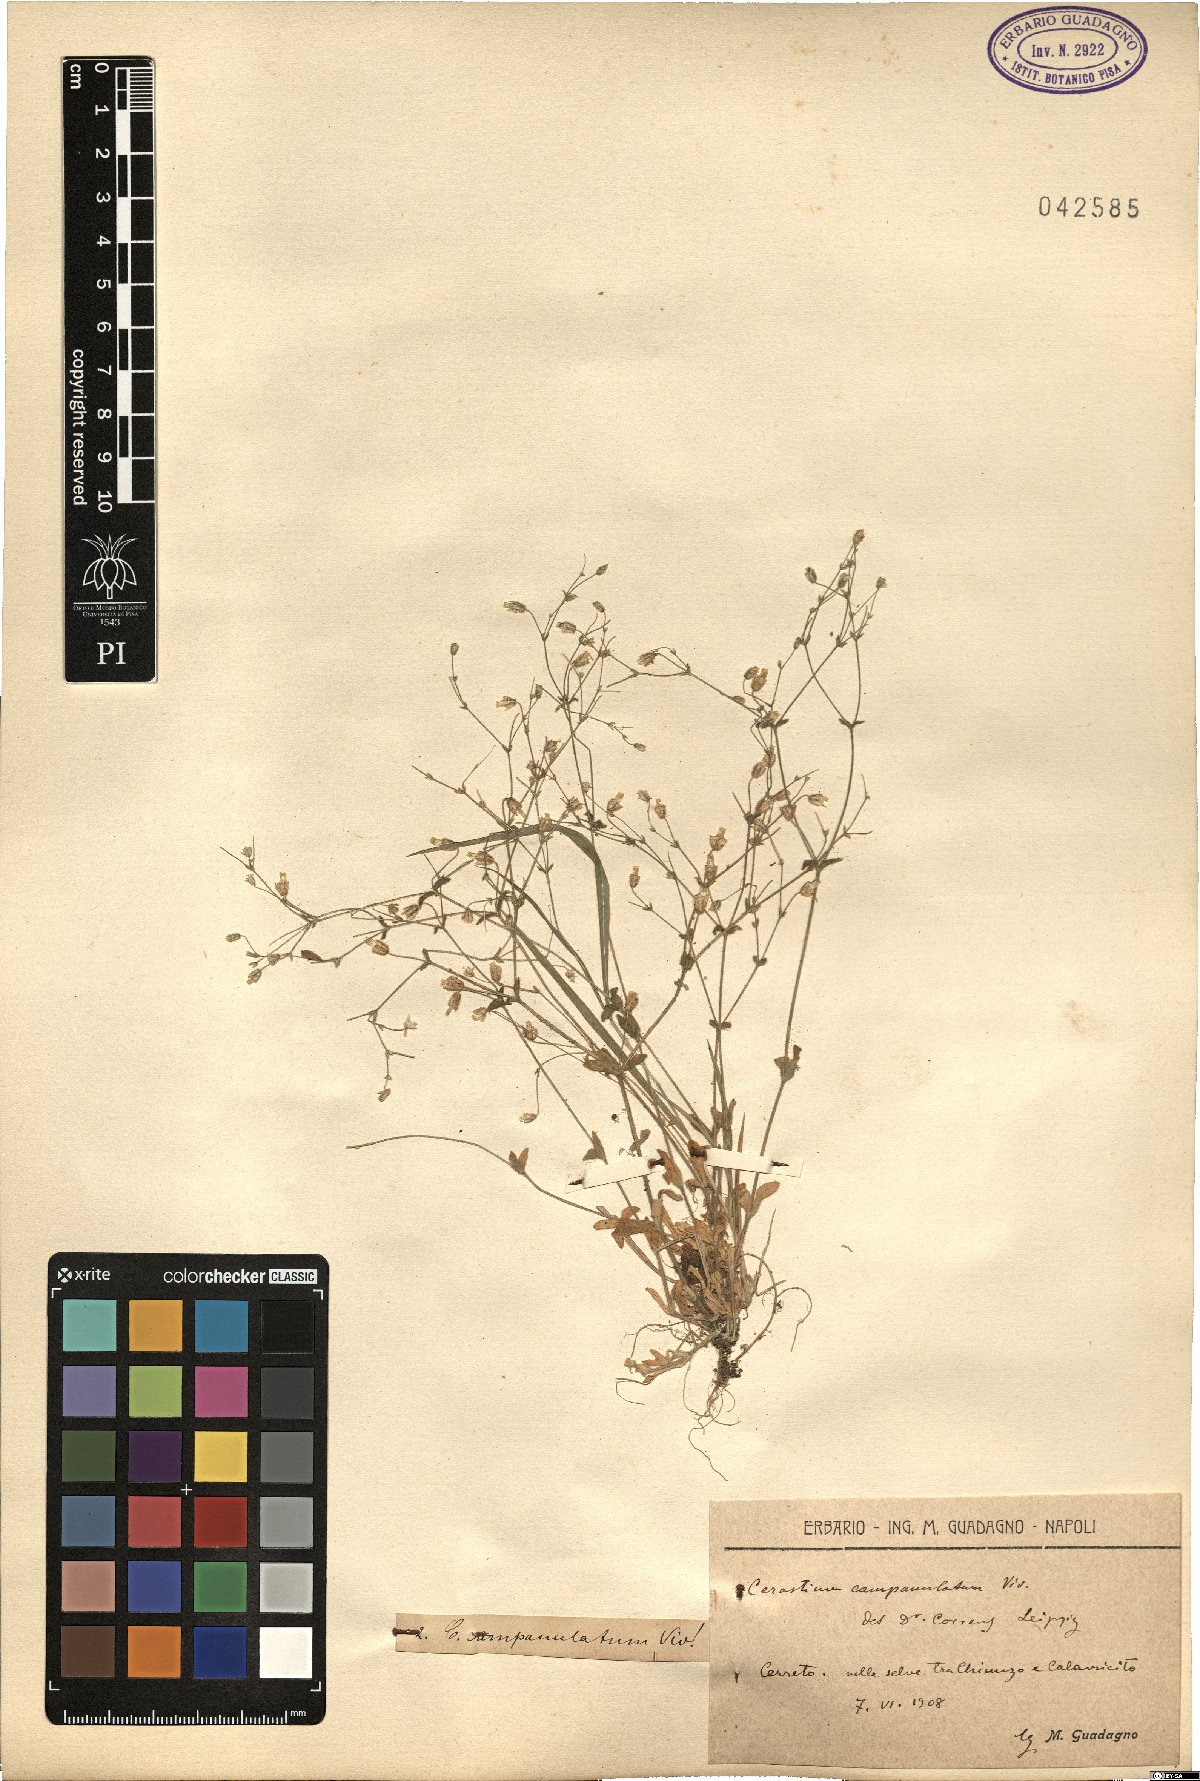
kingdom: Plantae
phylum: Tracheophyta
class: Magnoliopsida
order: Caryophyllales
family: Caryophyllaceae
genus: Cerastium
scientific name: Cerastium ligusticum
